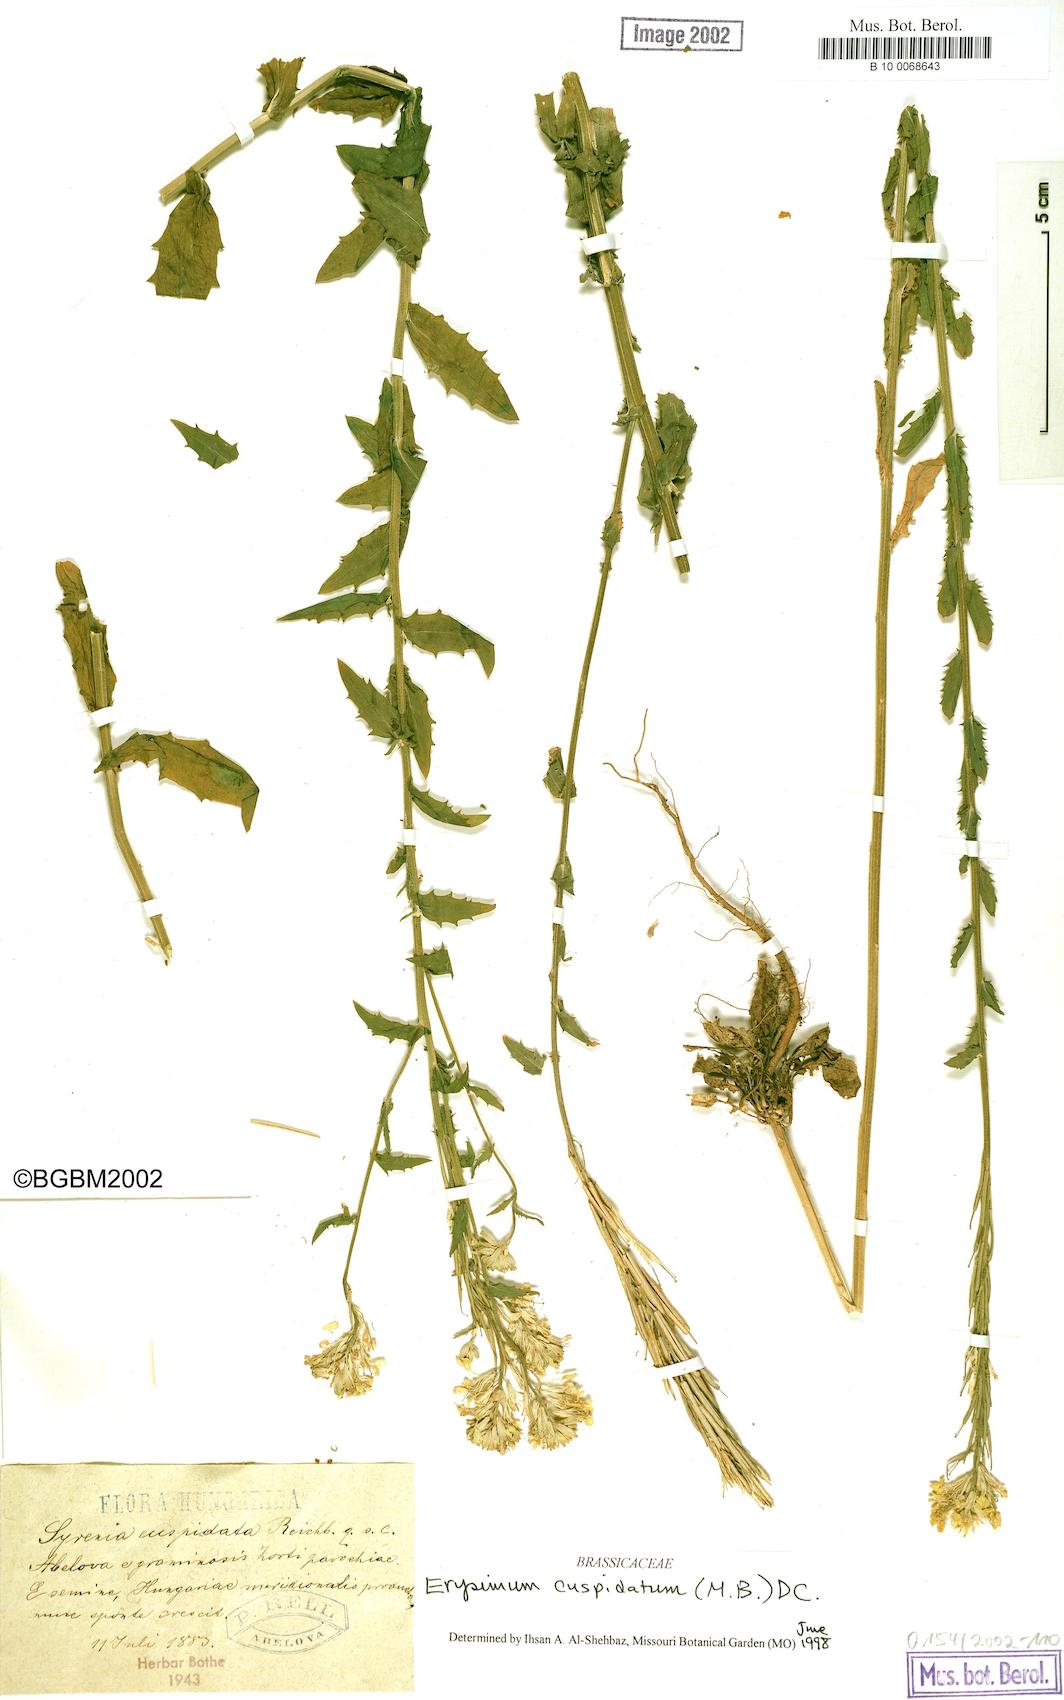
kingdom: Plantae
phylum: Tracheophyta
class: Magnoliopsida
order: Brassicales
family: Brassicaceae
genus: Erysimum
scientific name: Erysimum cuspidatum
